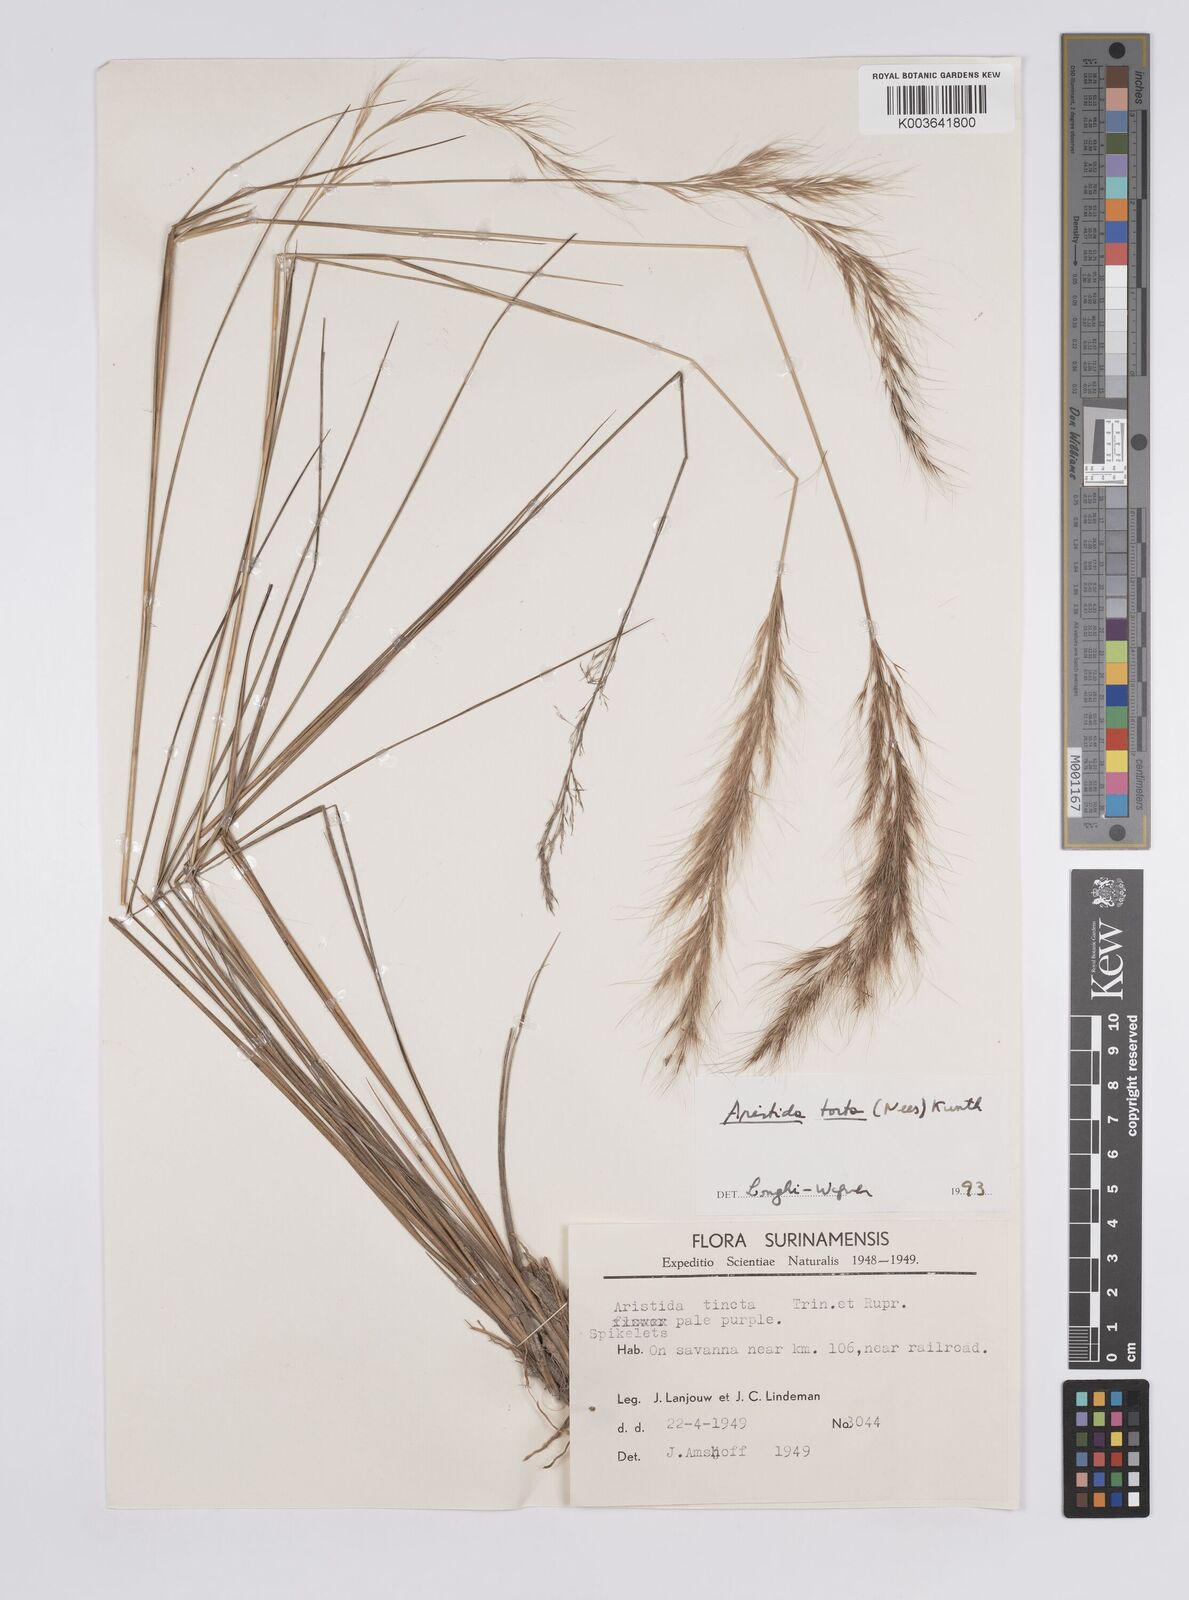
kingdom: Plantae
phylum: Tracheophyta
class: Liliopsida
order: Poales
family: Poaceae
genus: Aristida
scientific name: Aristida torta
